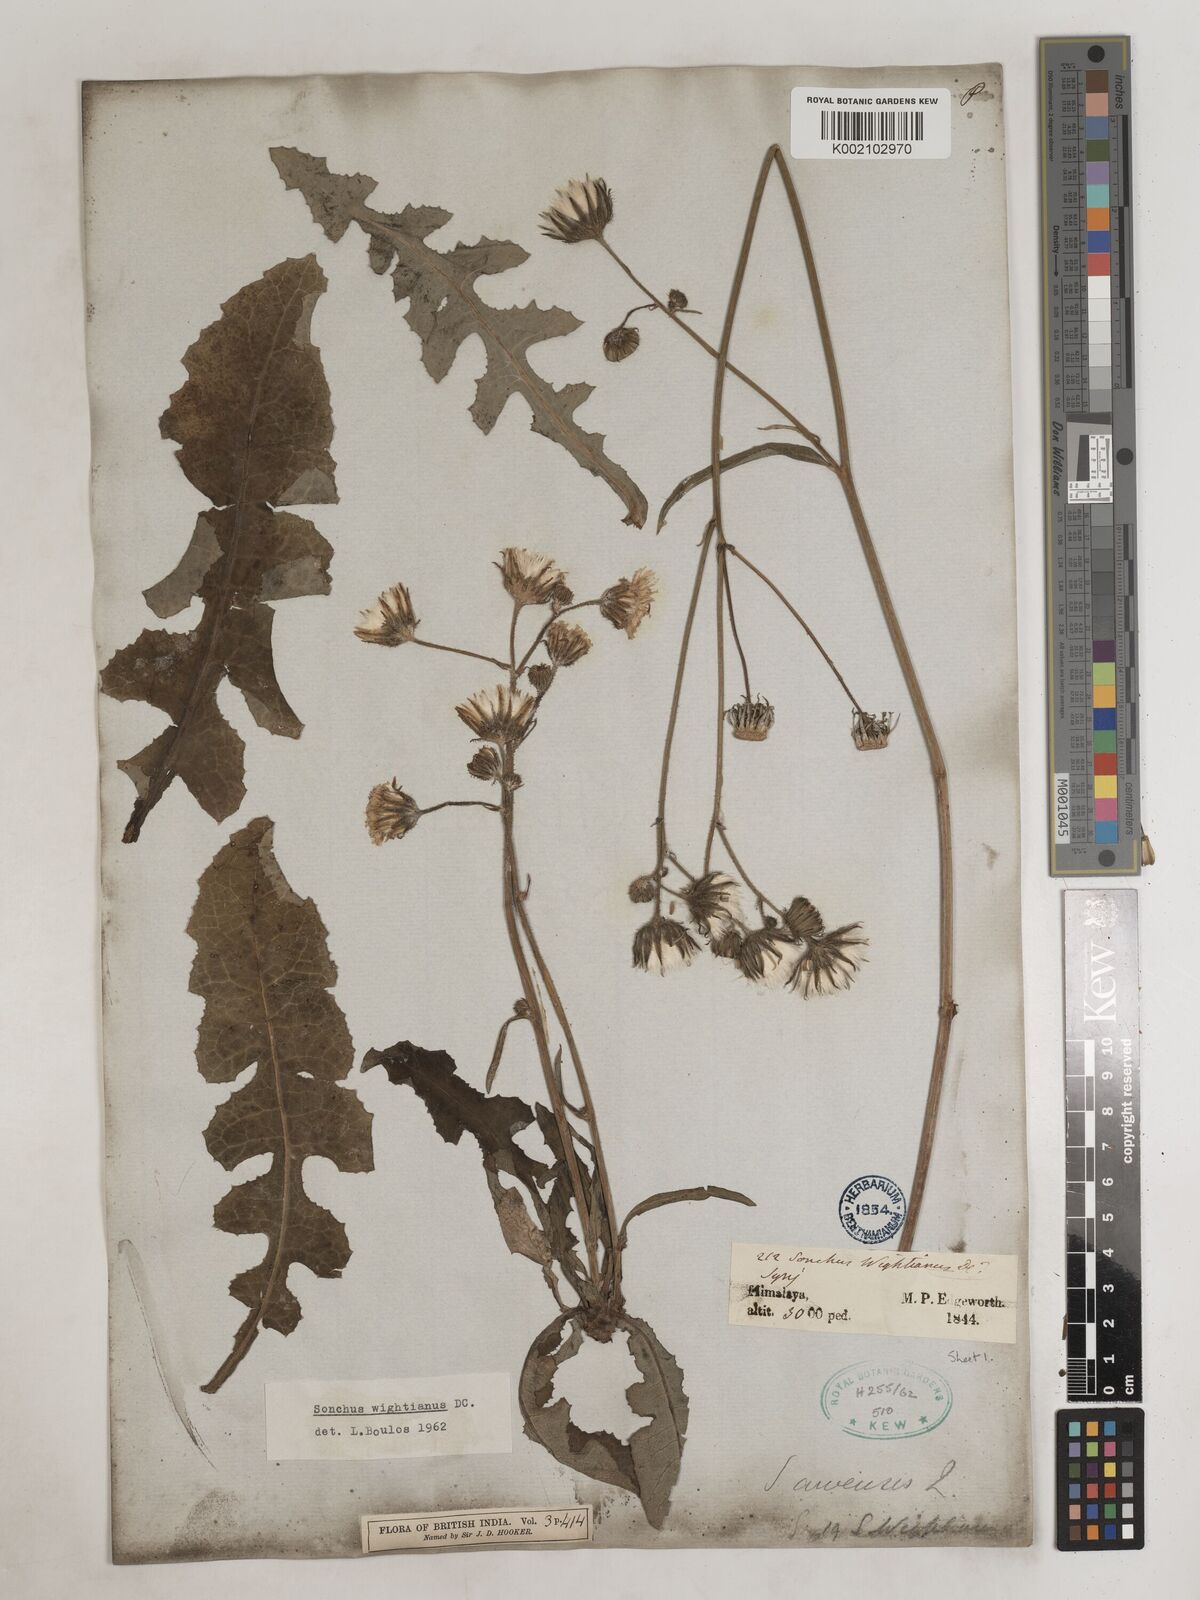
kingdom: Plantae
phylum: Tracheophyta
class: Magnoliopsida
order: Asterales
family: Asteraceae
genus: Sonchus
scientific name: Sonchus arvensis
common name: Perennial sow-thistle
